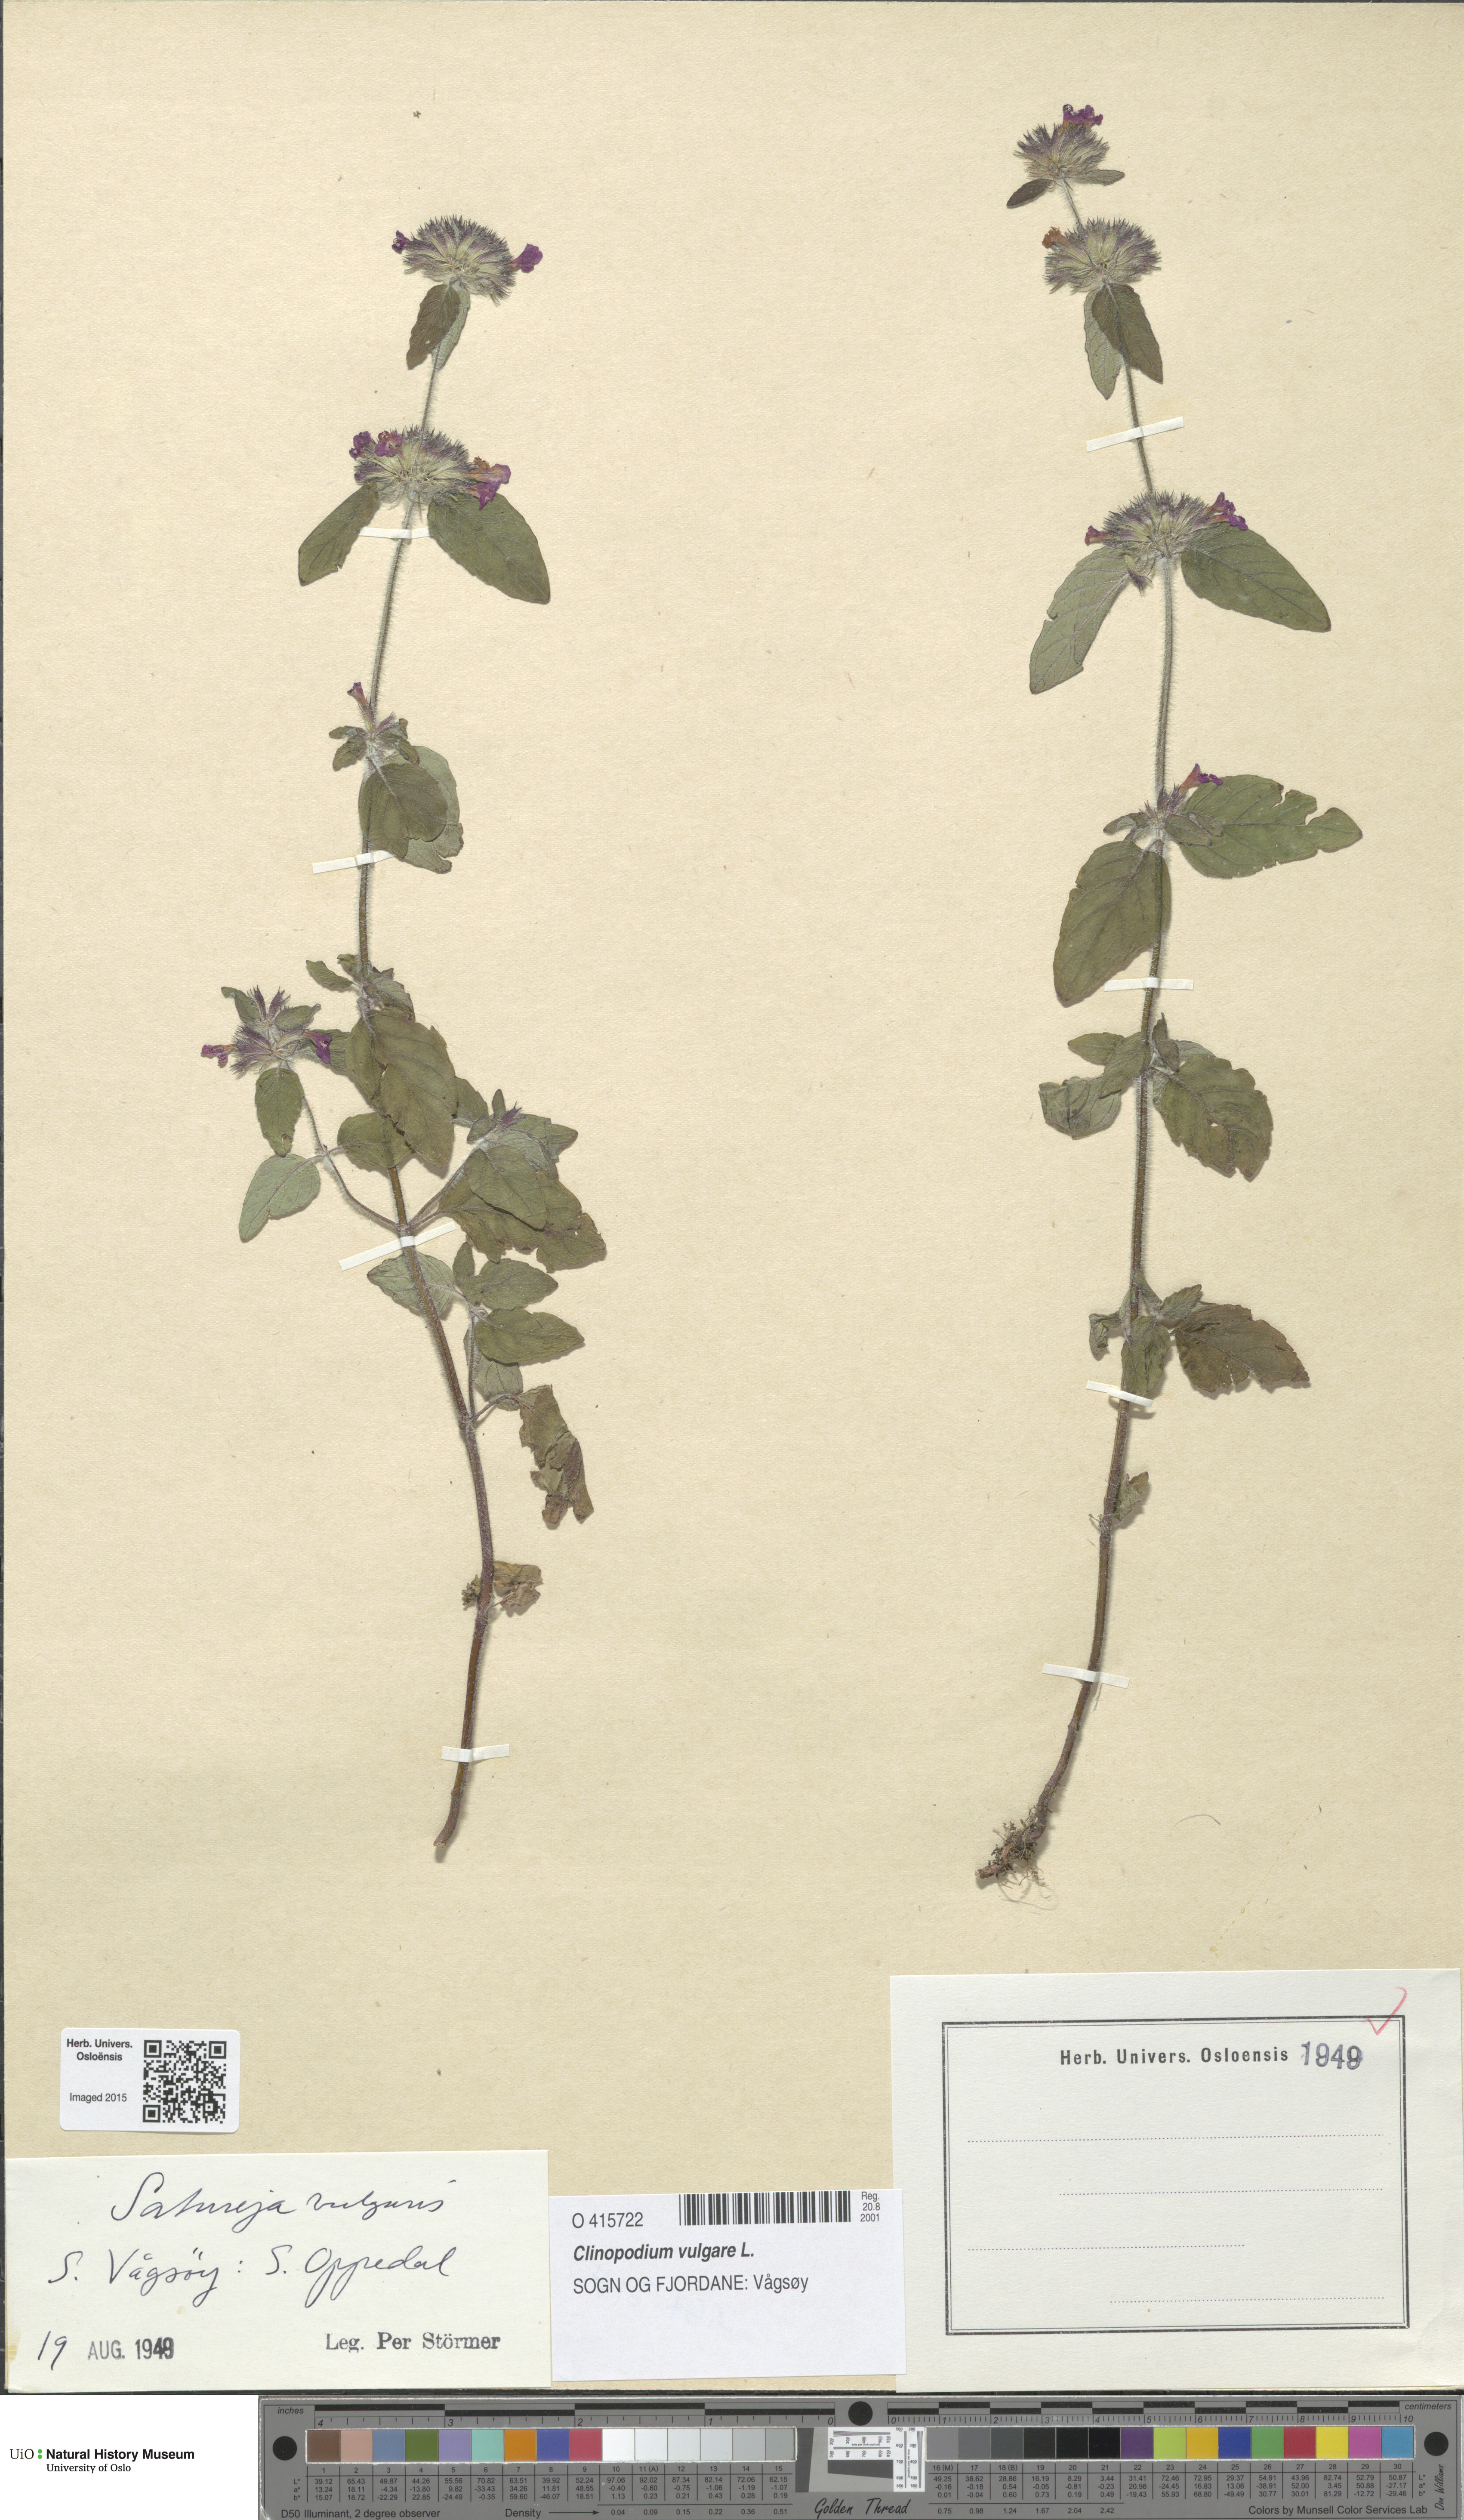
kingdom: Plantae
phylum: Tracheophyta
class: Magnoliopsida
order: Lamiales
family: Lamiaceae
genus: Clinopodium
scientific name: Clinopodium vulgare
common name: Wild basil
